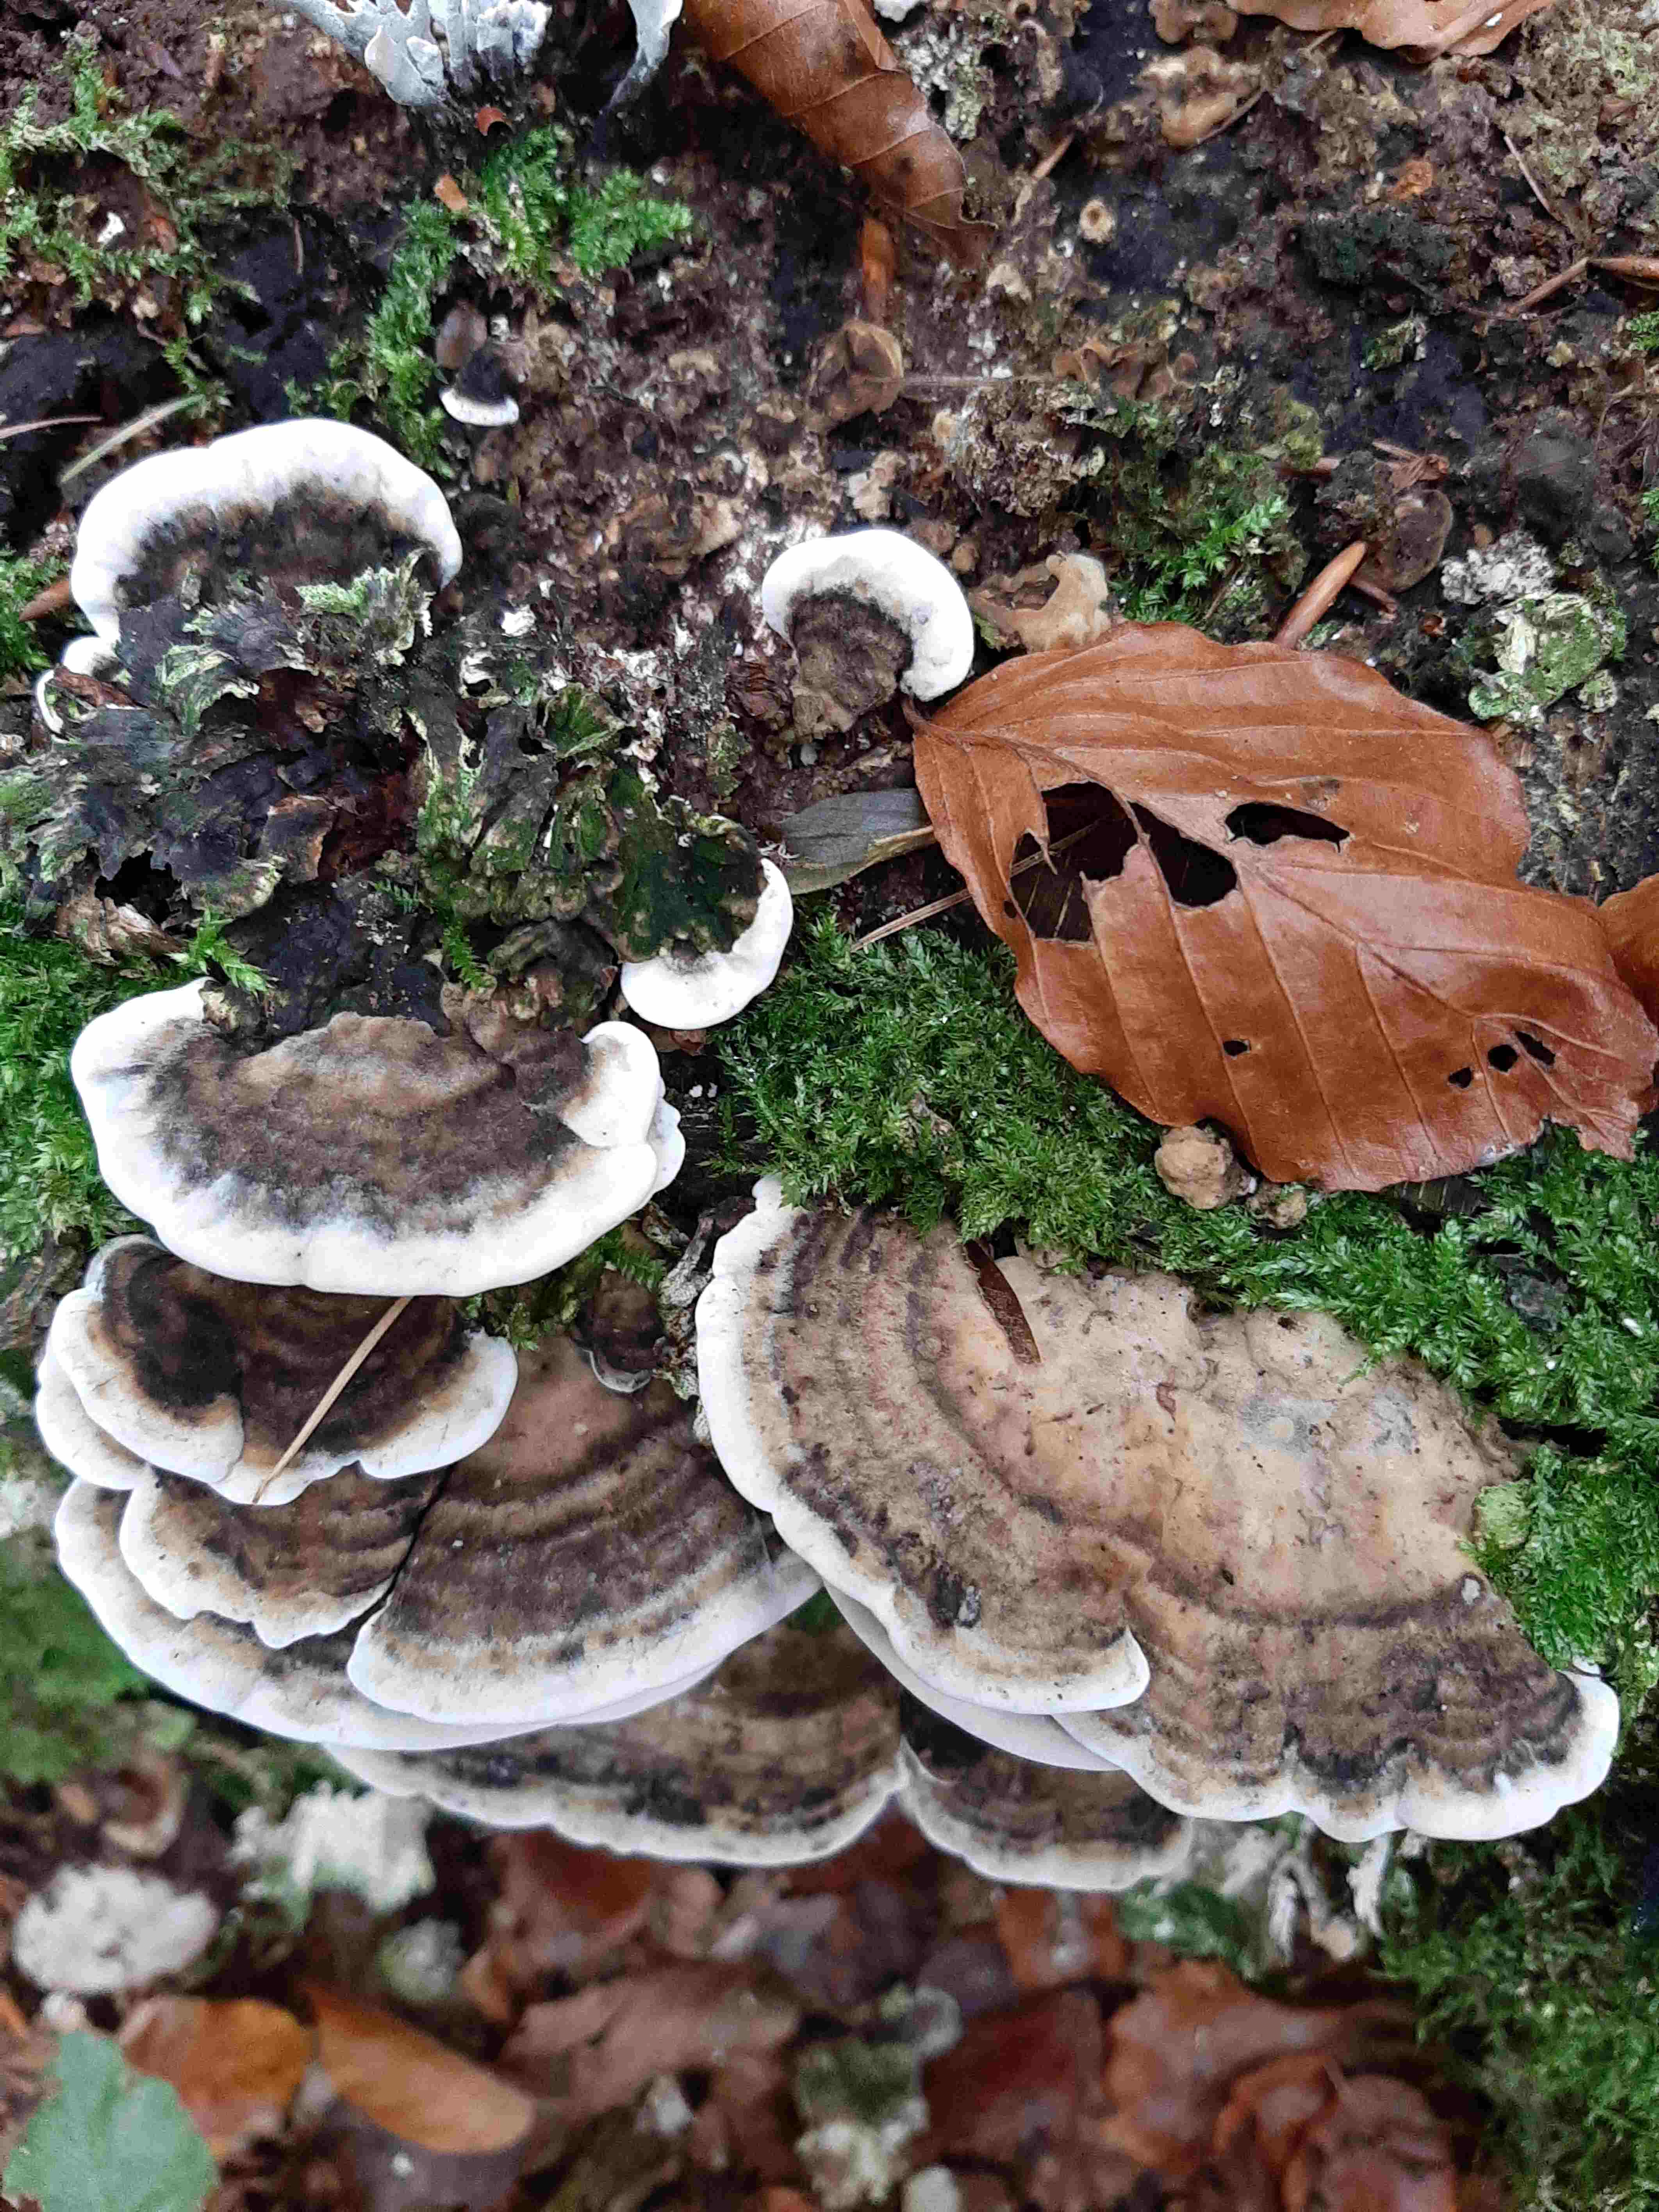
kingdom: Fungi
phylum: Basidiomycota
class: Agaricomycetes
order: Polyporales
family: Phanerochaetaceae
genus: Bjerkandera
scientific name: Bjerkandera adusta
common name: sveden sodporesvamp
